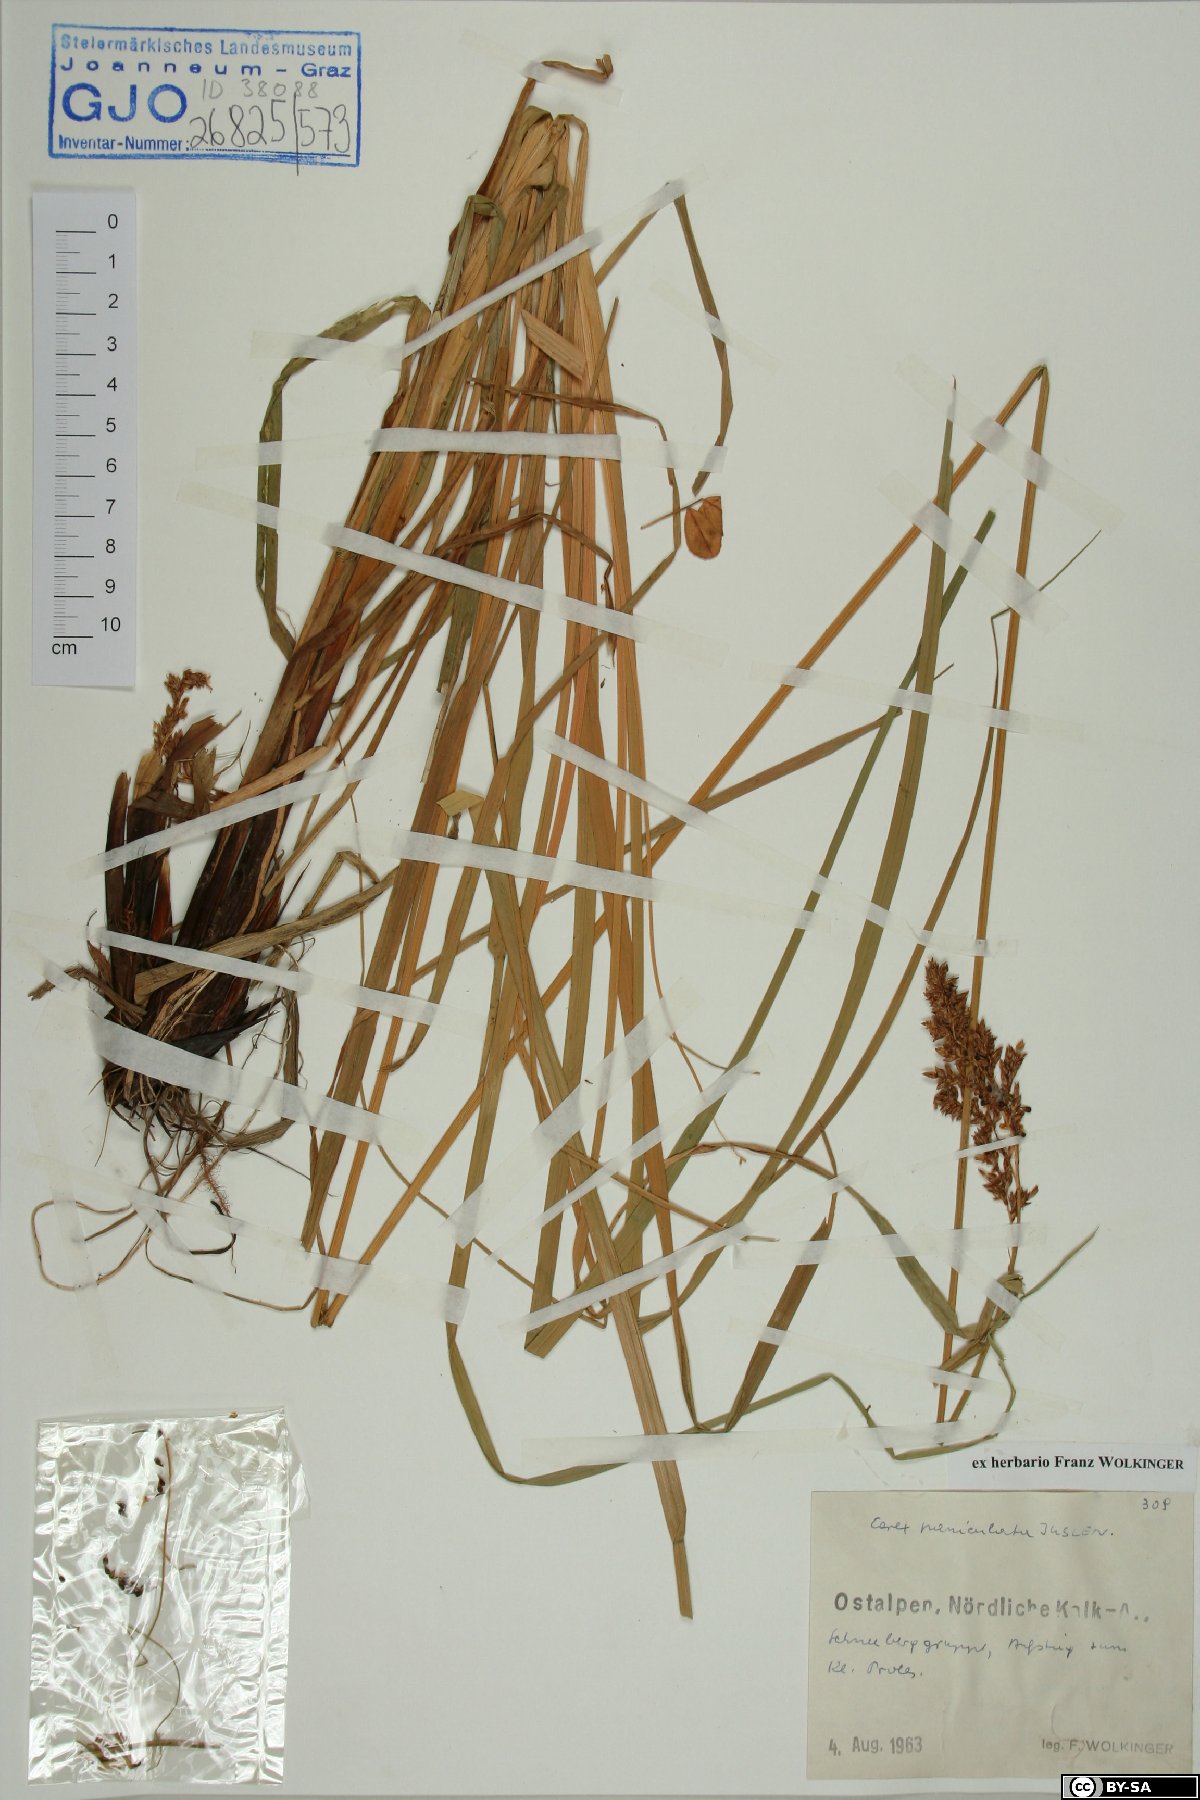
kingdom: Plantae
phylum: Tracheophyta
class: Liliopsida
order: Poales
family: Cyperaceae
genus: Carex
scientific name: Carex paniculata
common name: Greater tussock-sedge
